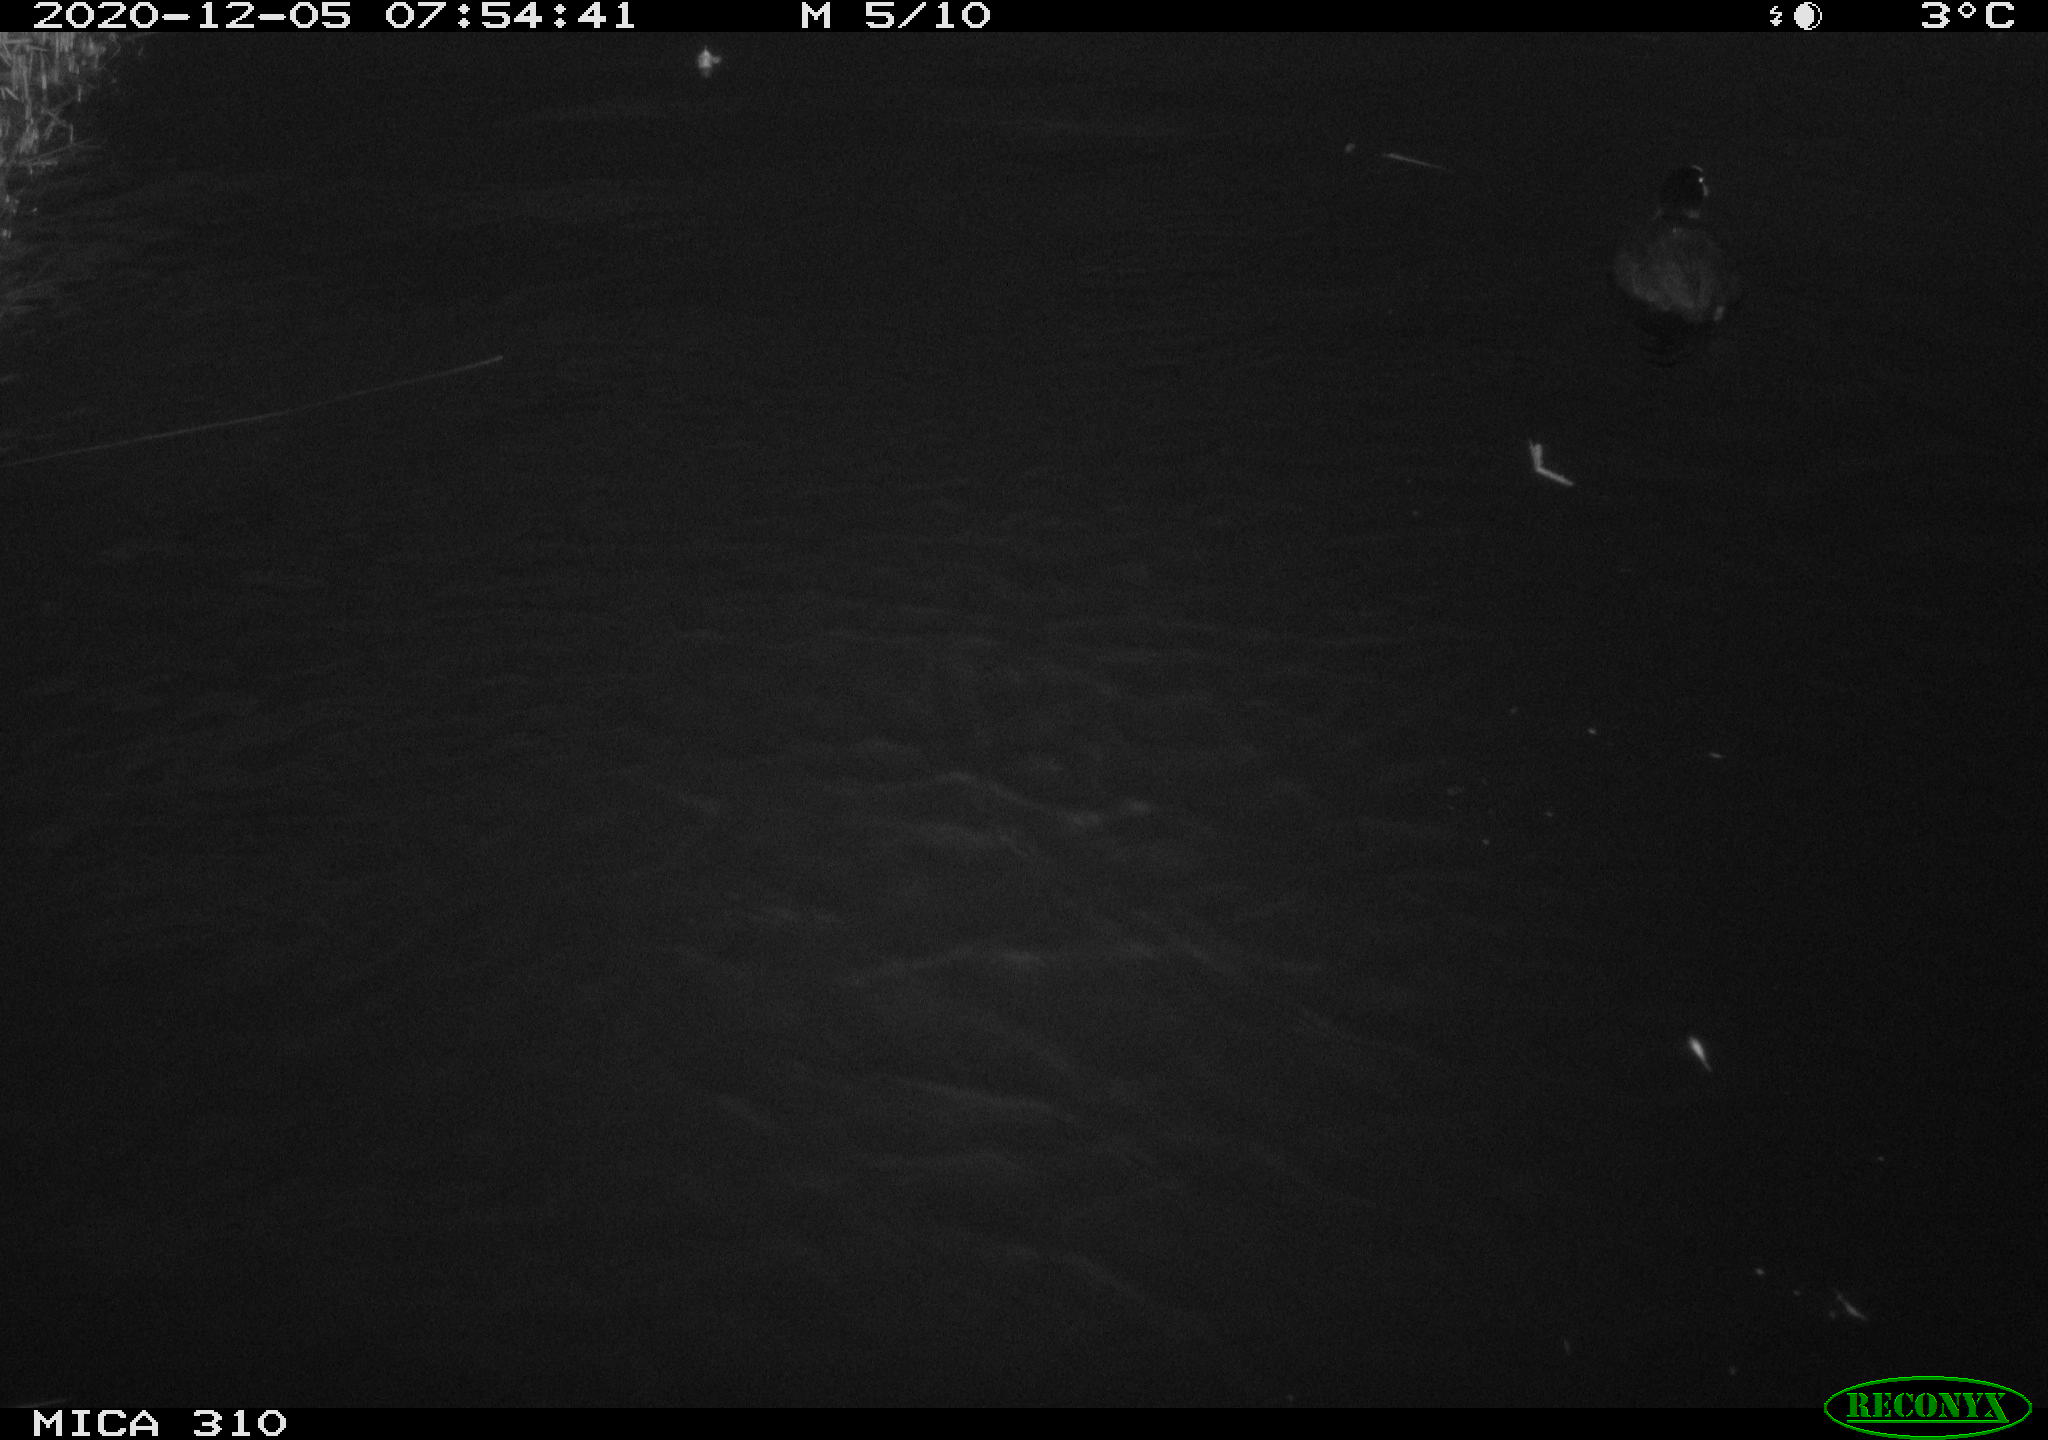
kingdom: Animalia
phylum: Chordata
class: Aves
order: Gruiformes
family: Rallidae
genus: Fulica
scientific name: Fulica atra
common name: Eurasian coot
